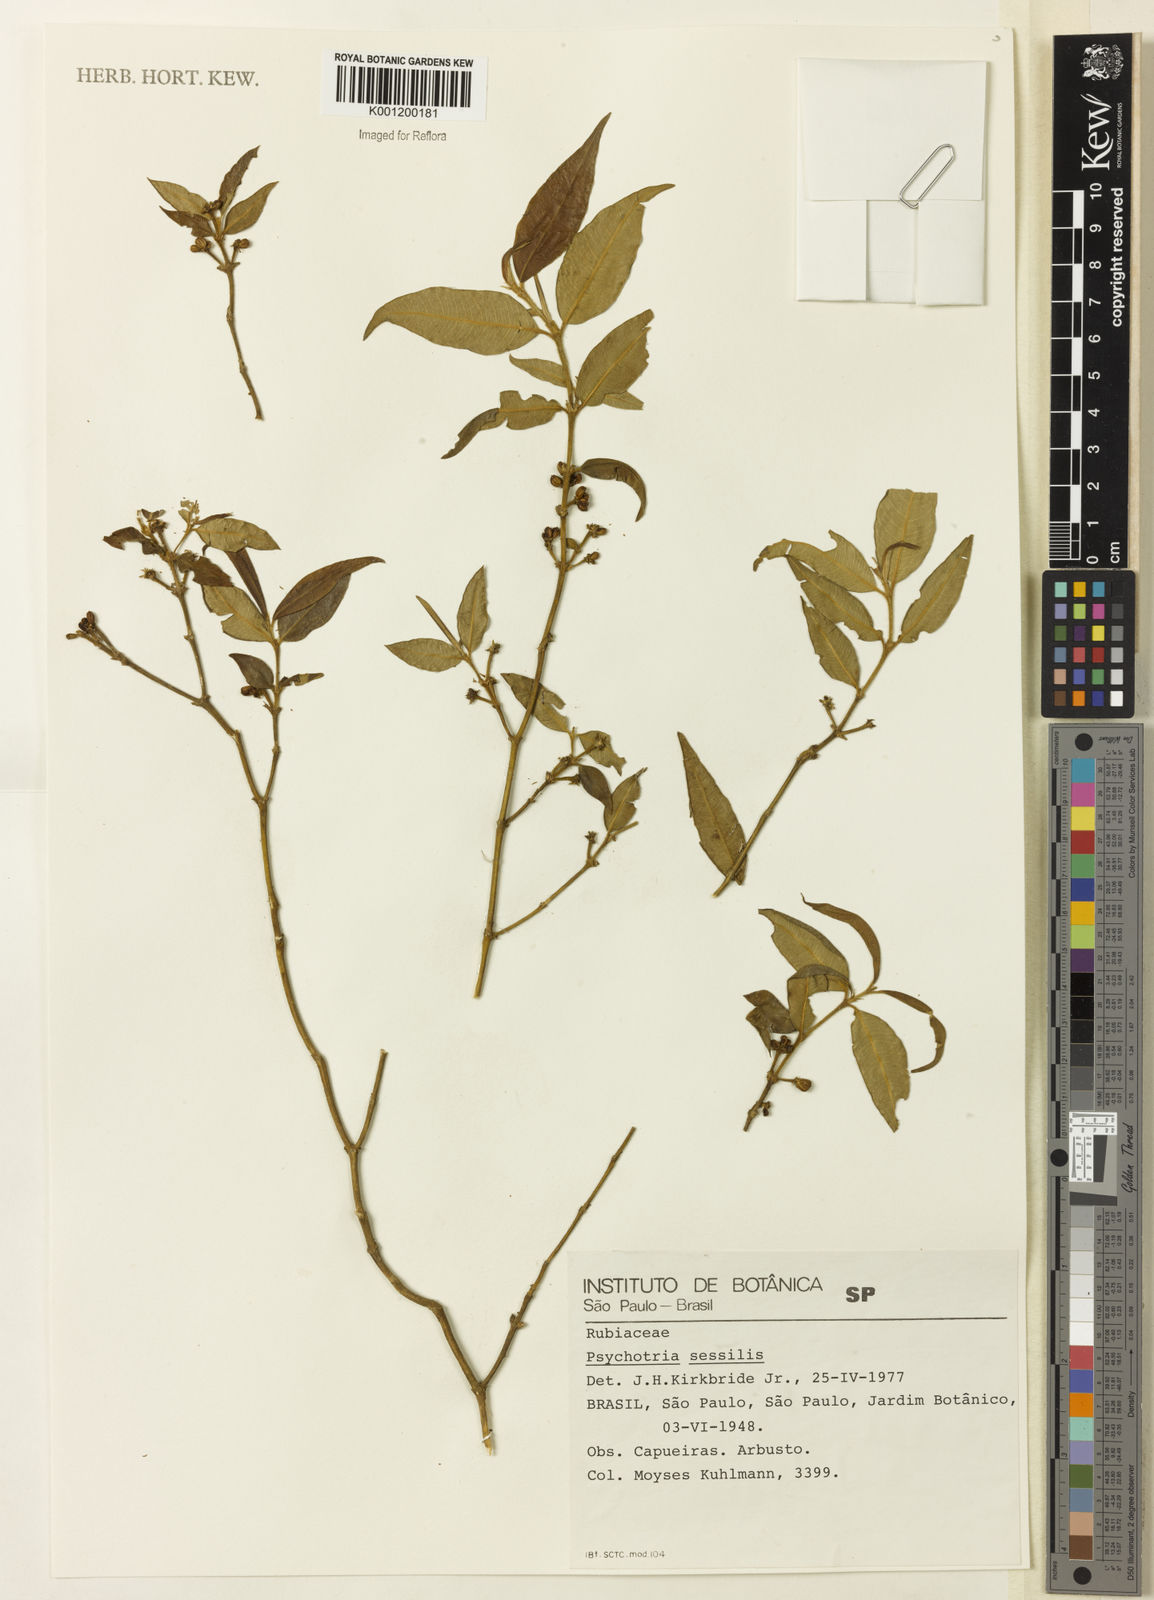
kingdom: Plantae
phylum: Tracheophyta
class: Magnoliopsida
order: Gentianales
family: Rubiaceae
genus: Rudgea
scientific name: Rudgea sessilis
